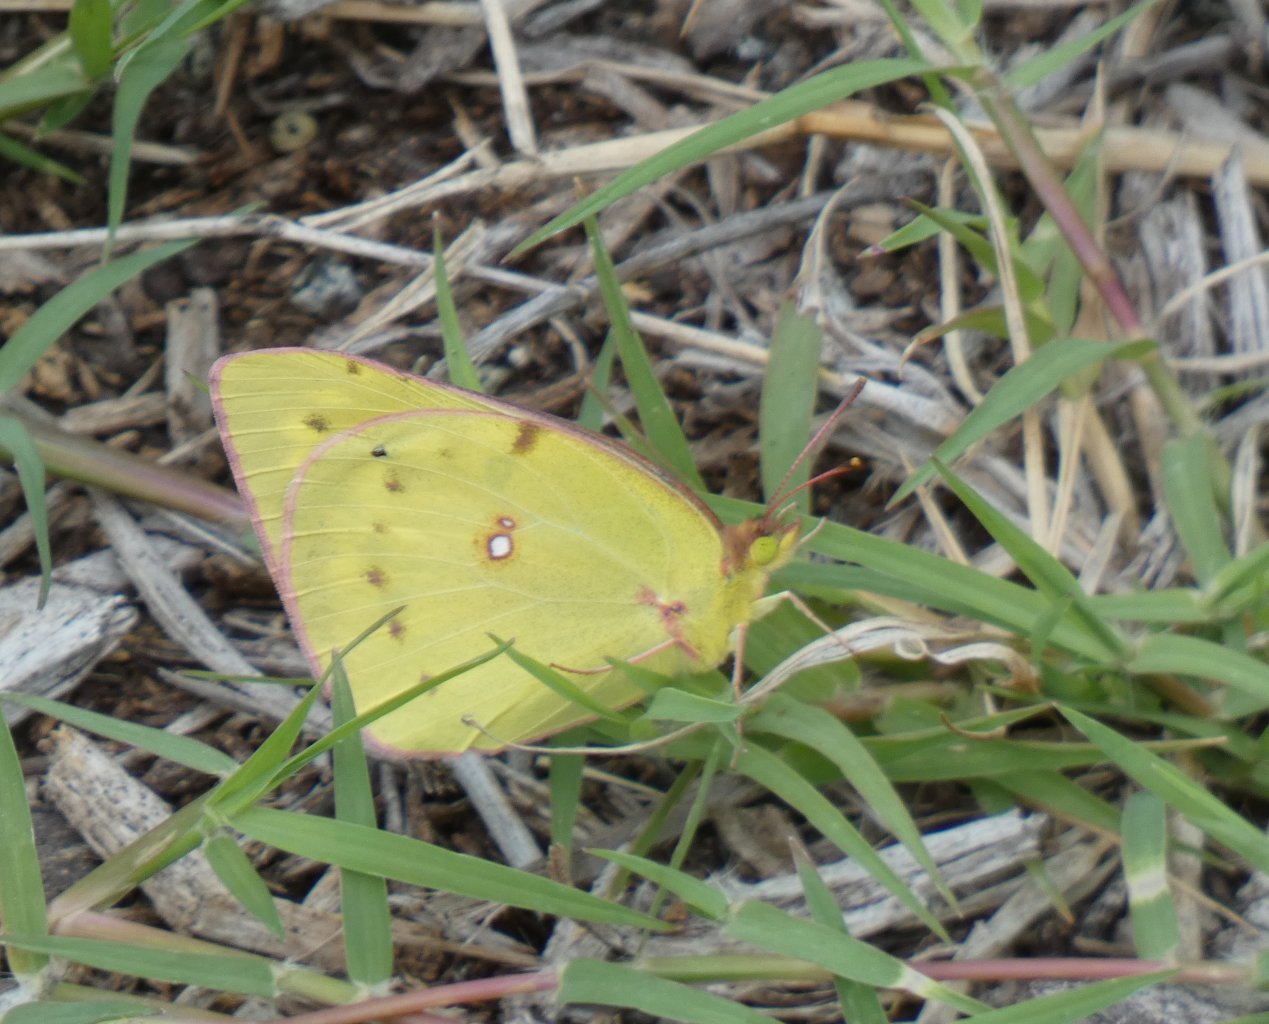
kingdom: Animalia
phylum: Arthropoda
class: Insecta
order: Lepidoptera
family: Pieridae
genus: Colias
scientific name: Colias philodice
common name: Clouded Sulphur
